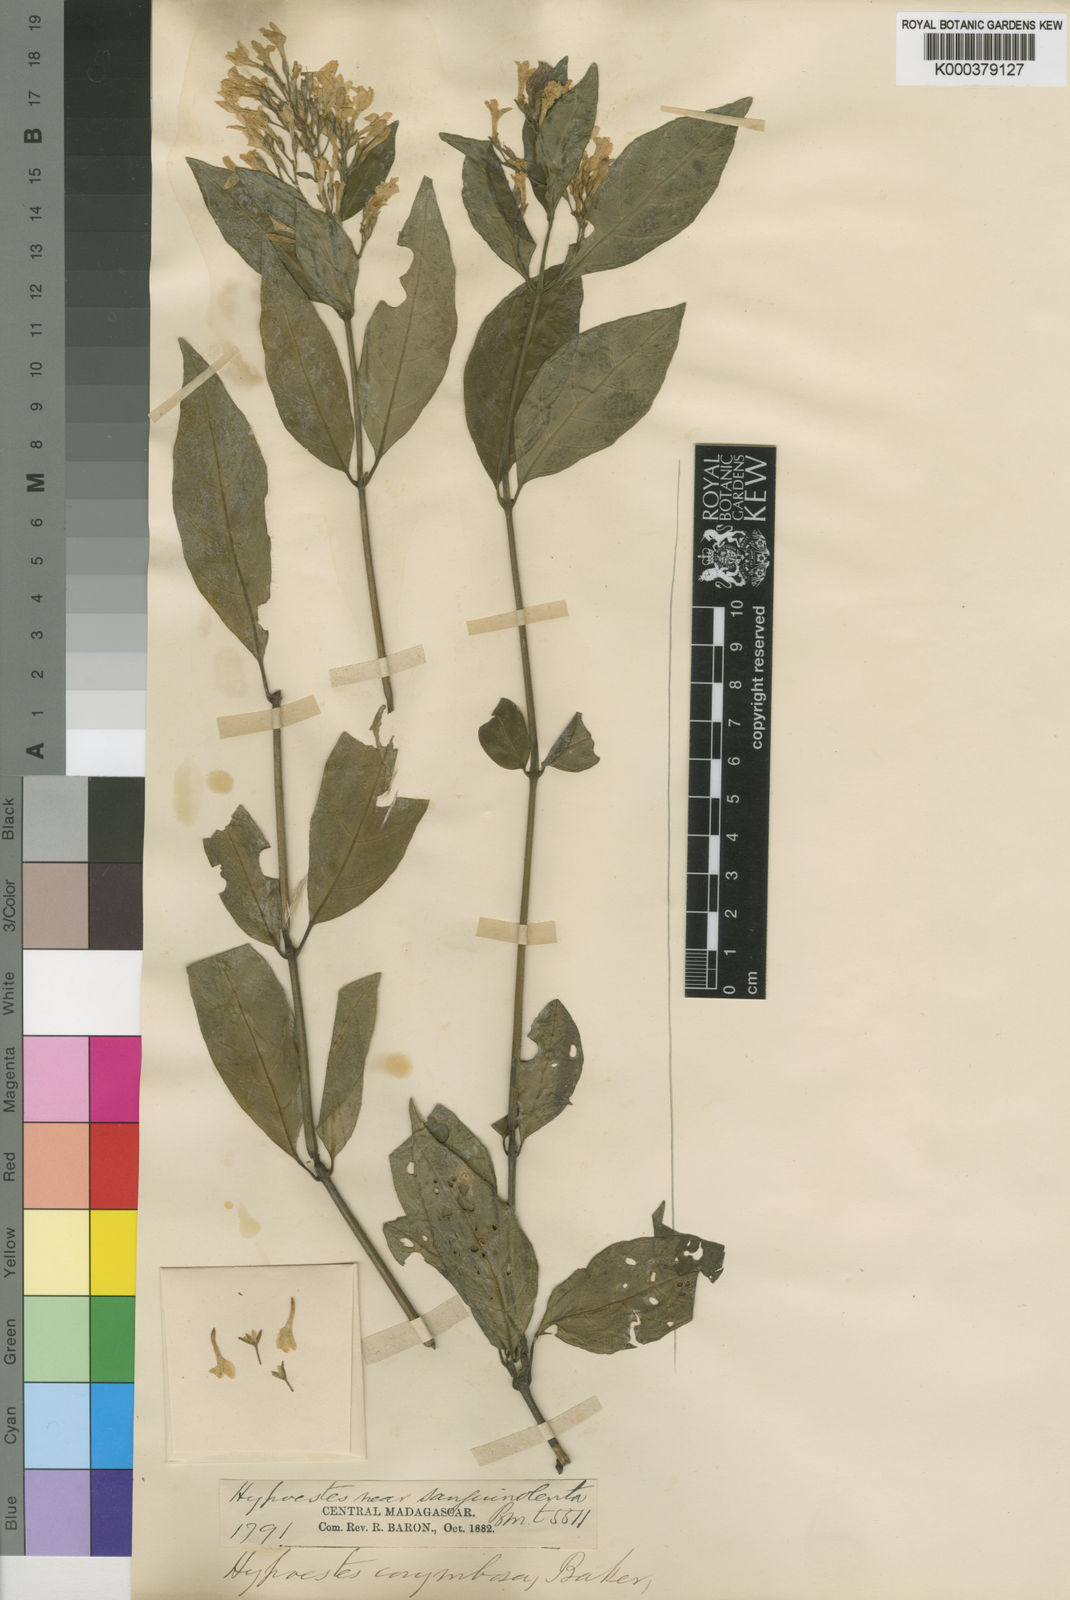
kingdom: Plantae
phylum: Tracheophyta
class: Magnoliopsida
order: Lamiales
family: Acanthaceae
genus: Hypoestes
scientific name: Hypoestes corymbosa
